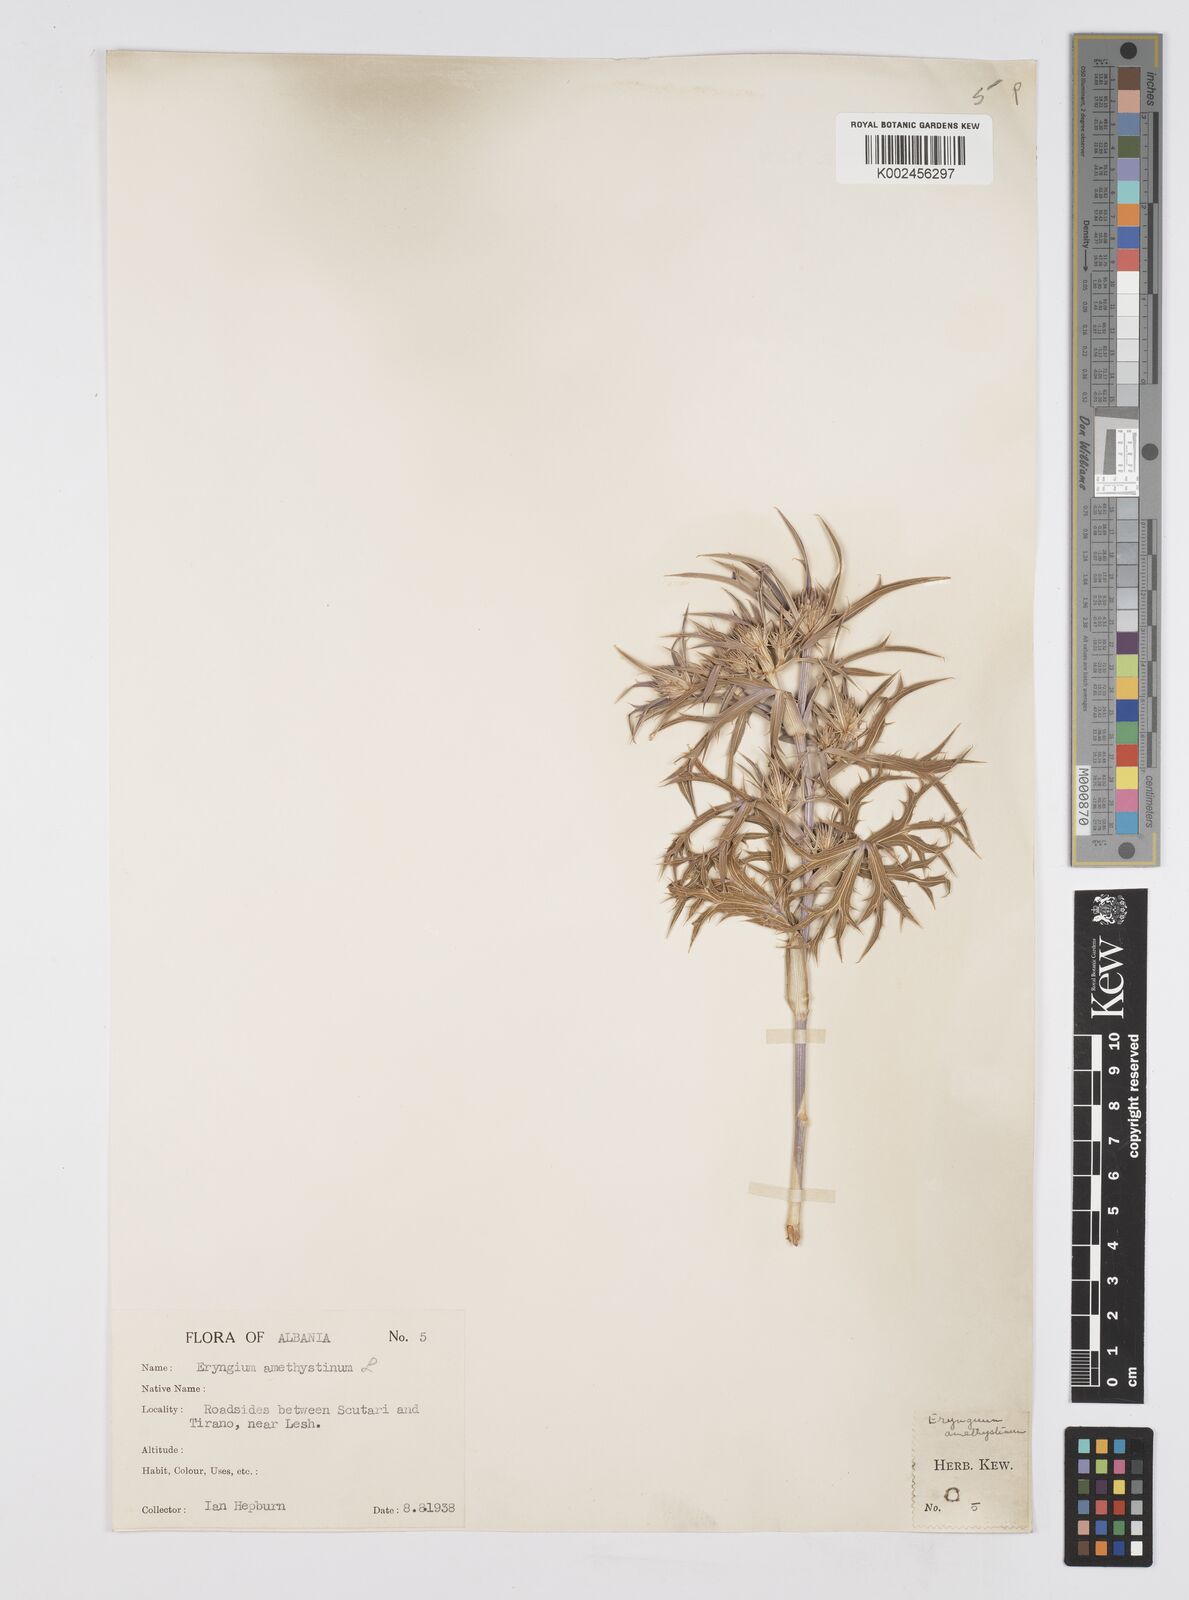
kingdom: Plantae
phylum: Tracheophyta
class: Magnoliopsida
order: Apiales
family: Apiaceae
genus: Eryngium
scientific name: Eryngium amethystinum
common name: Amethyst eryngo
